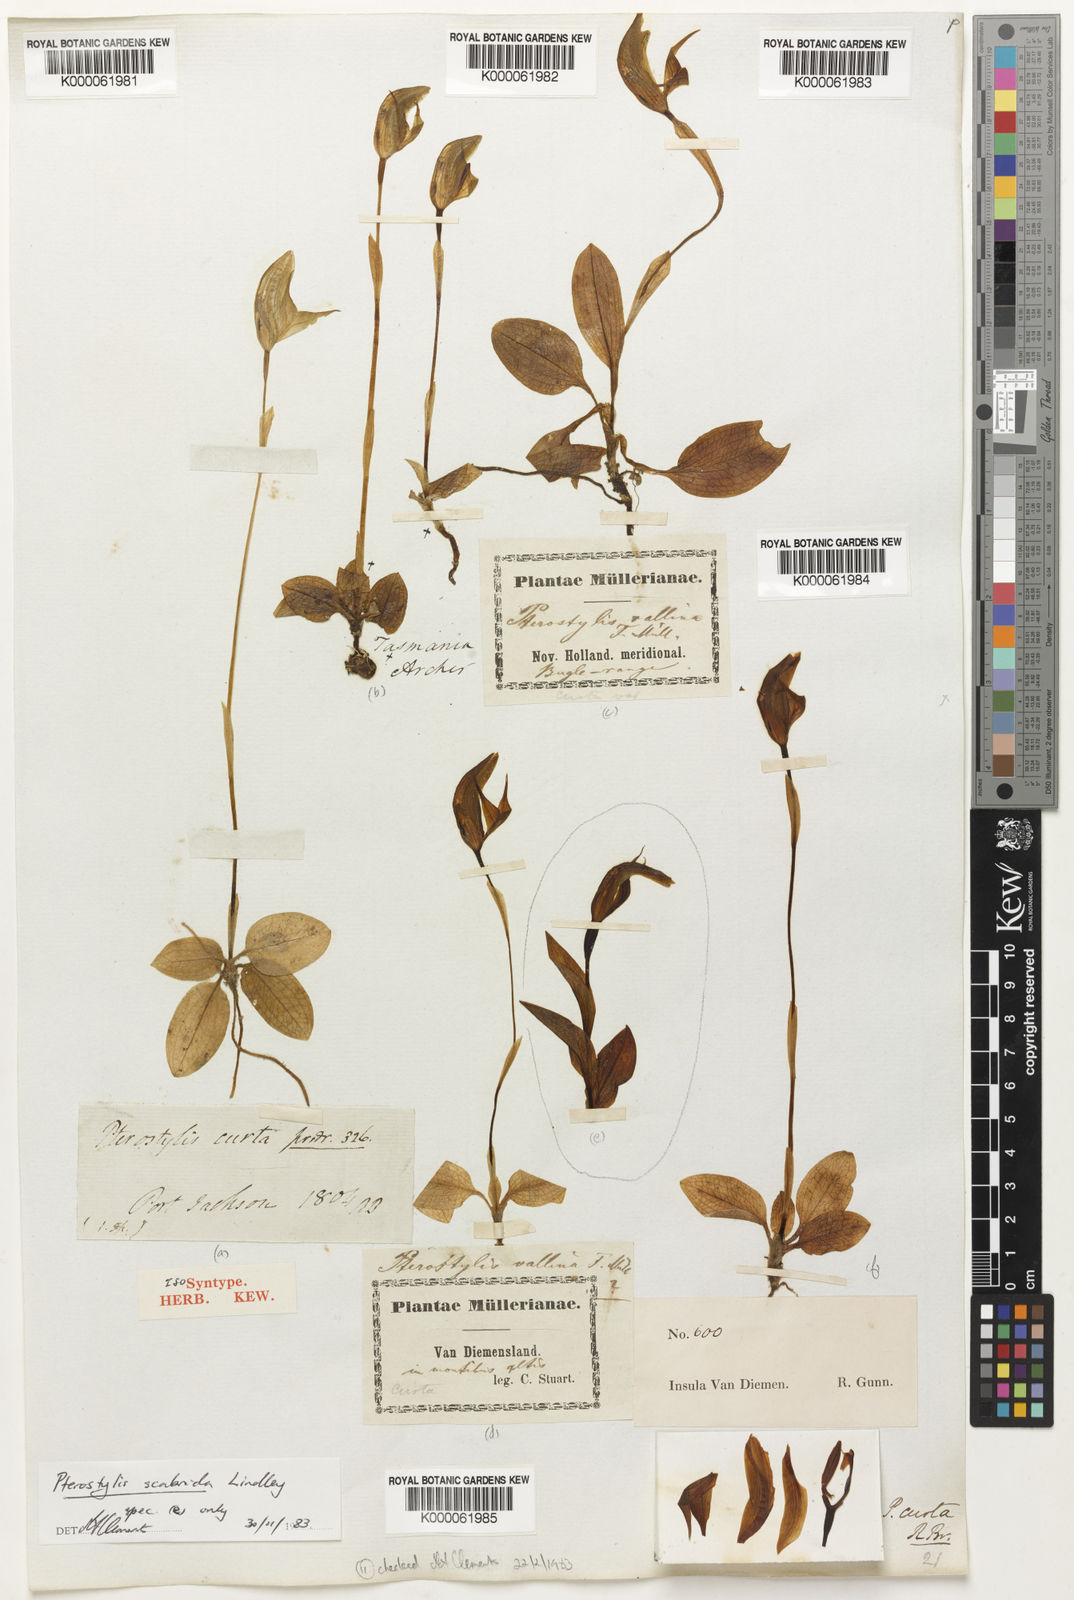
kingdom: Plantae
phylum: Tracheophyta
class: Liliopsida
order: Asparagales
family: Orchidaceae
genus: Pterostylis
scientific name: Pterostylis curta
